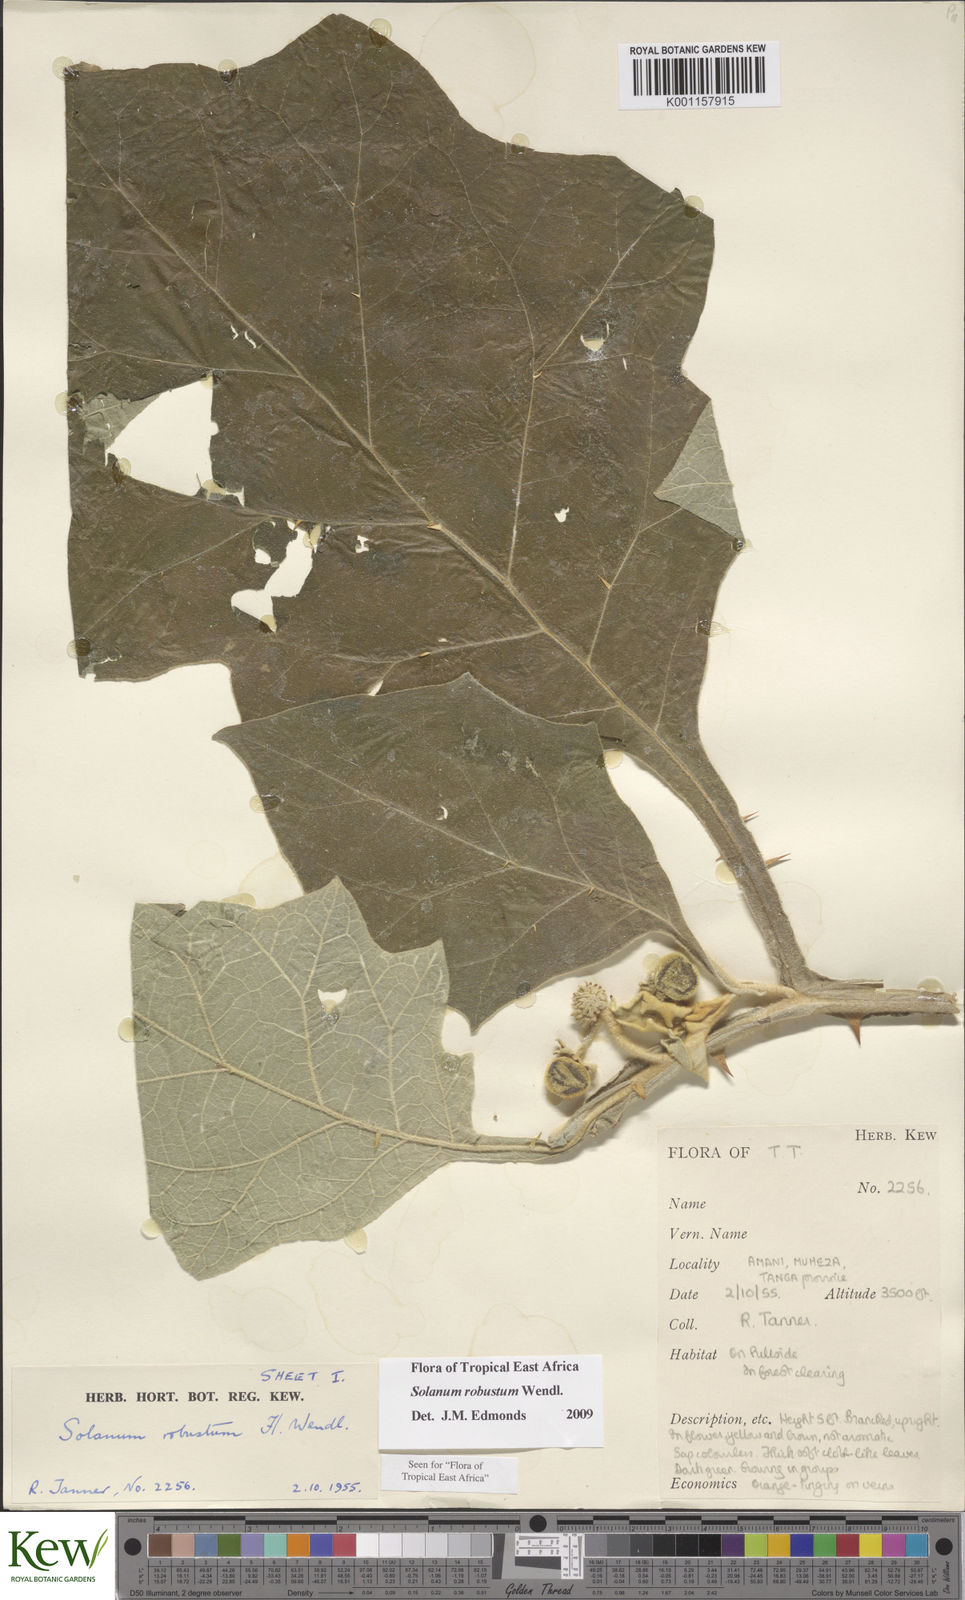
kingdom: Plantae
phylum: Tracheophyta
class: Magnoliopsida
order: Solanales
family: Solanaceae
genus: Solanum
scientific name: Solanum robustum
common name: Shrubby nightshade
